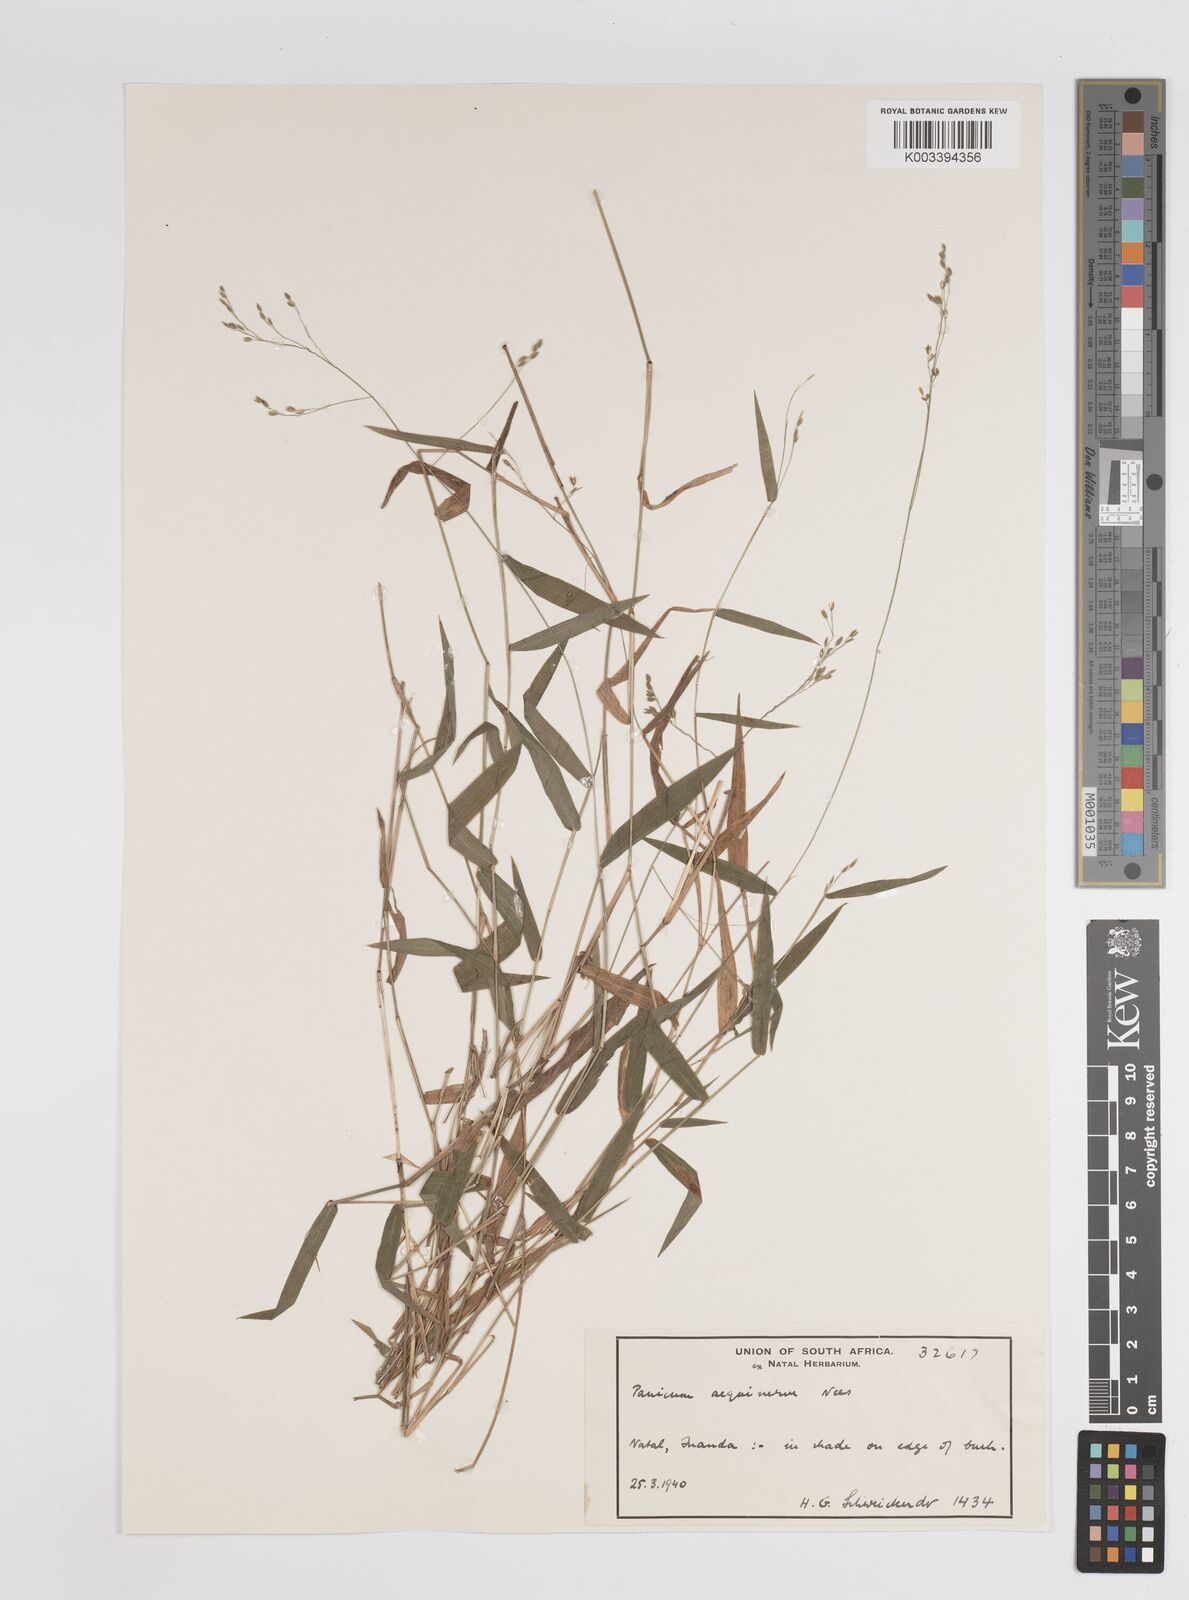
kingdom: Plantae
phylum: Tracheophyta
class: Liliopsida
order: Poales
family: Poaceae
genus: Panicum
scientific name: Panicum aequinerve
